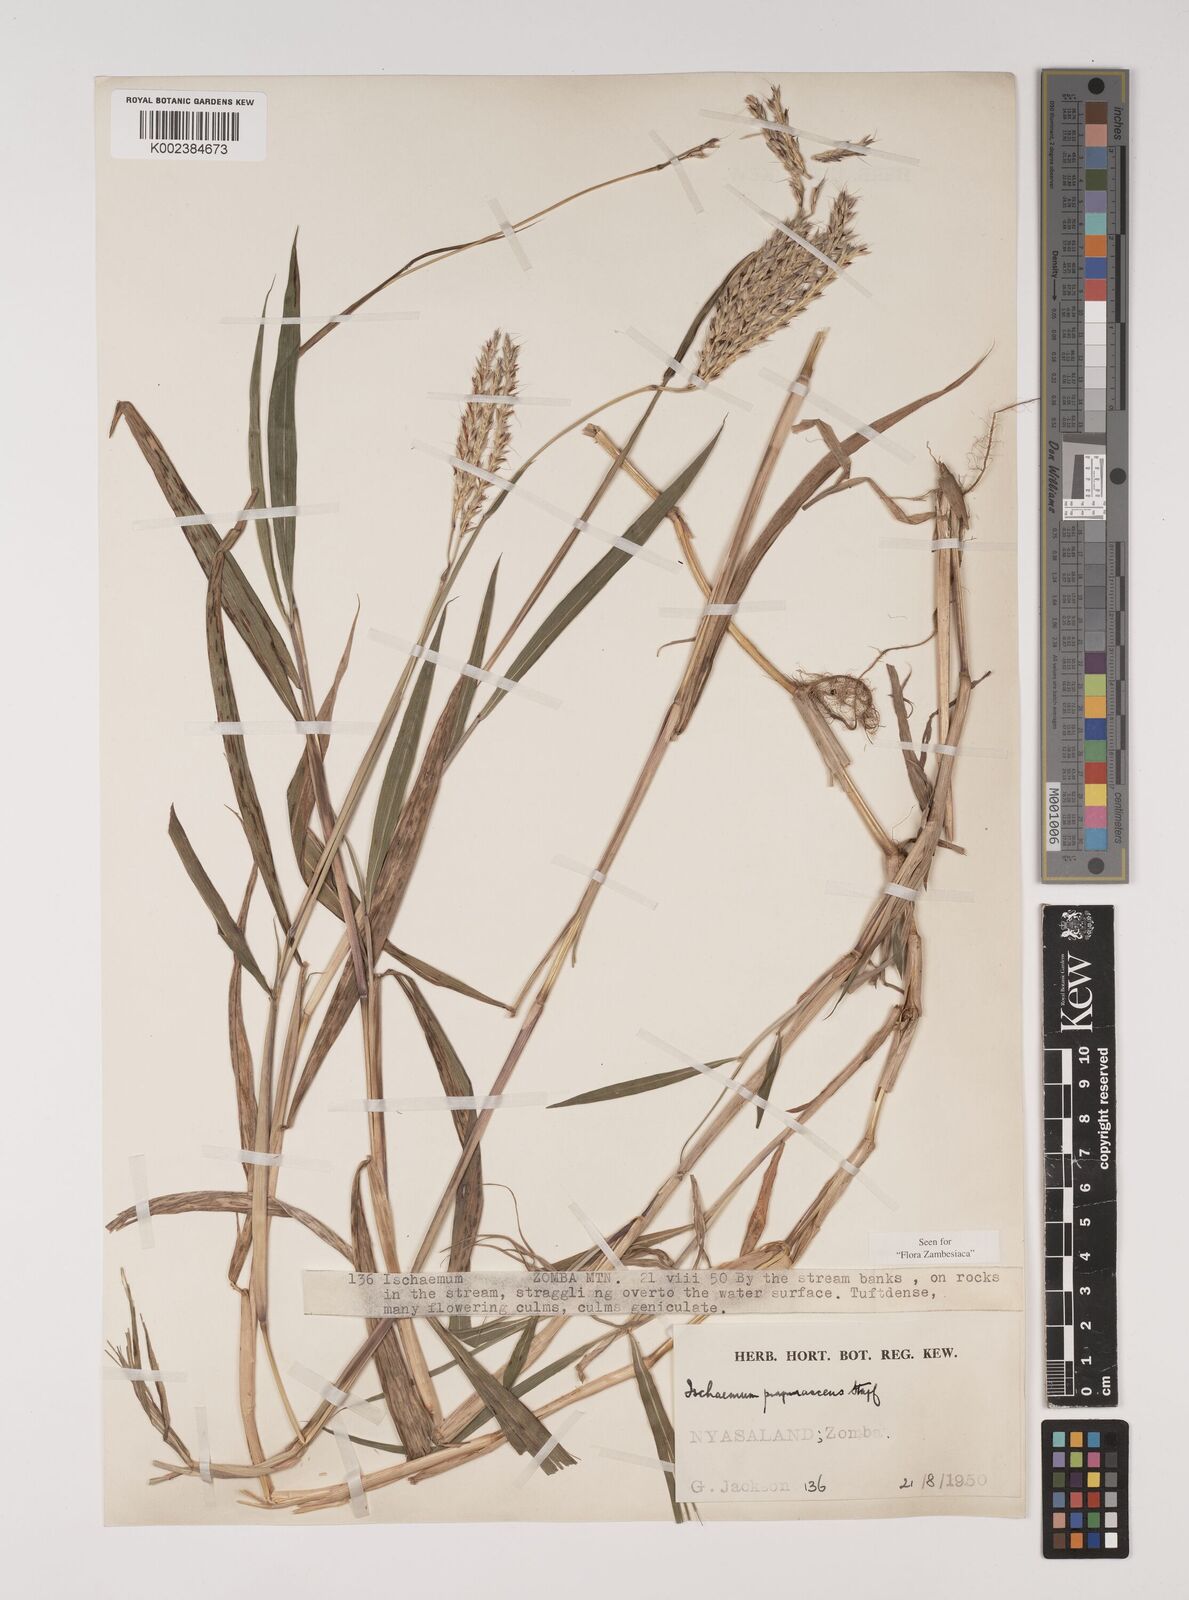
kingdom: Plantae
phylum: Tracheophyta
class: Liliopsida
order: Poales
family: Poaceae
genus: Ischaemum
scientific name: Ischaemum
